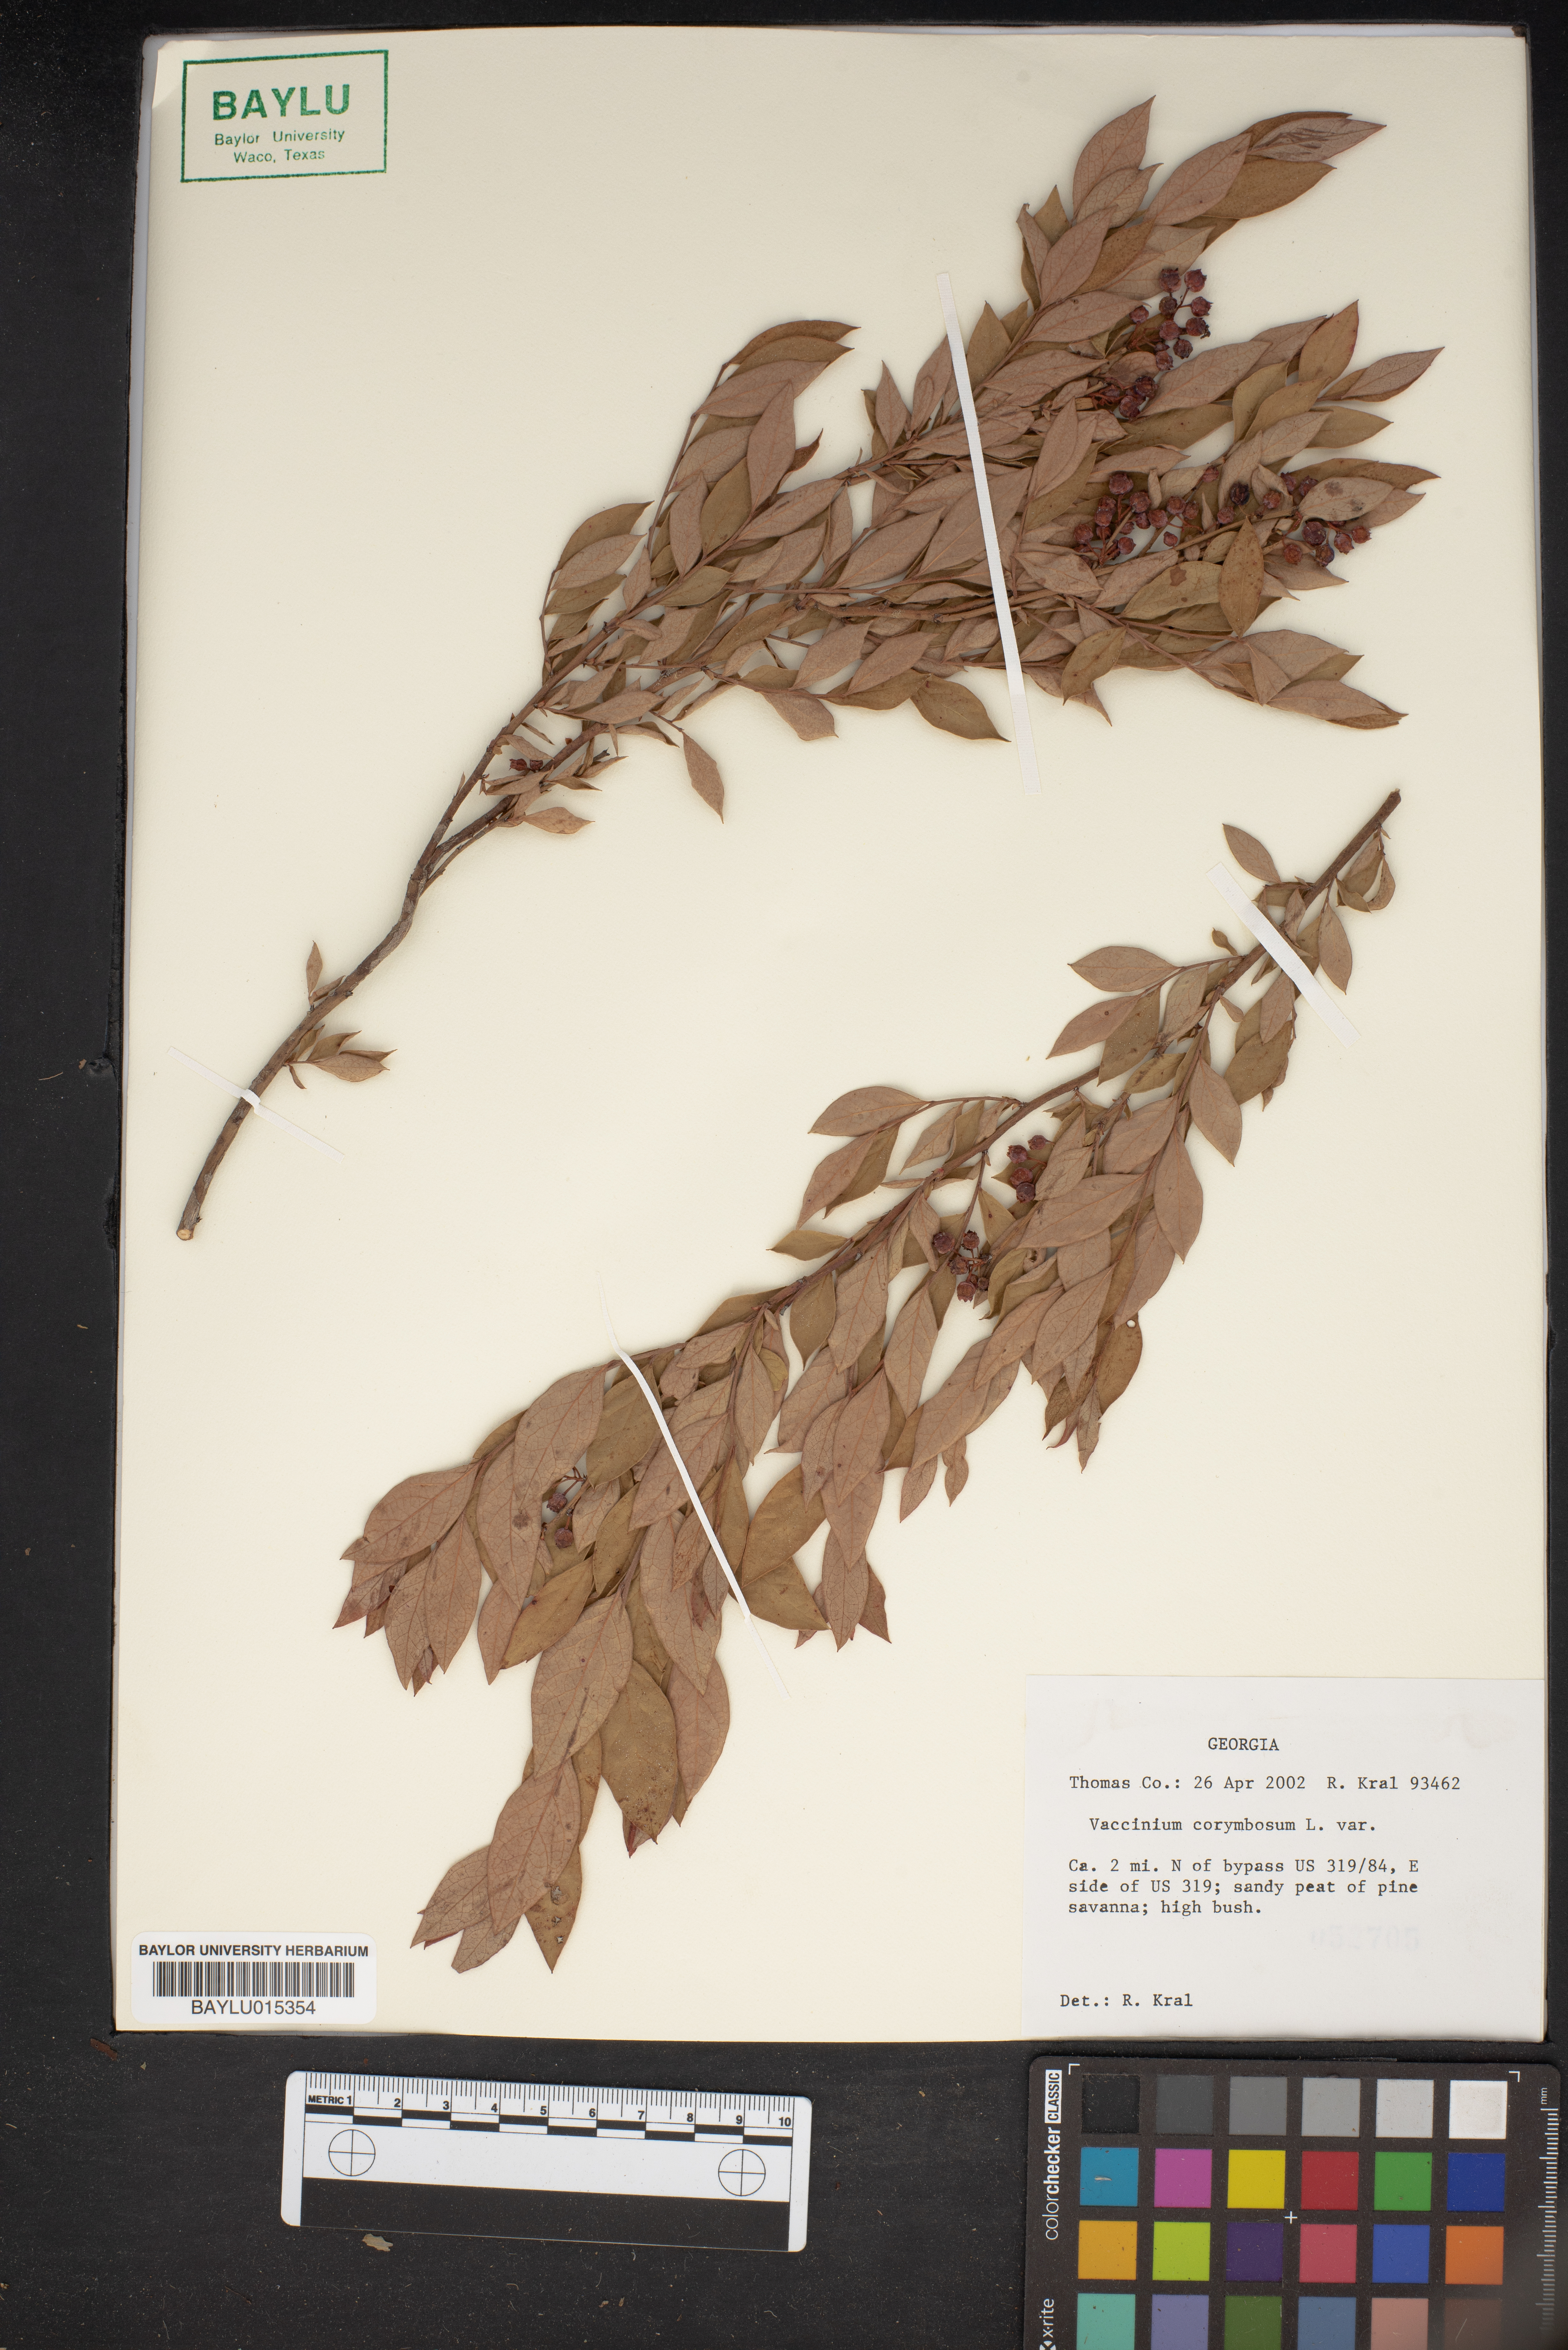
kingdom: Plantae
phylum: Tracheophyta
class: Magnoliopsida
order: Ericales
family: Ericaceae
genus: Vaccinium
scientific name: Vaccinium corymbosum
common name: Blueberry
